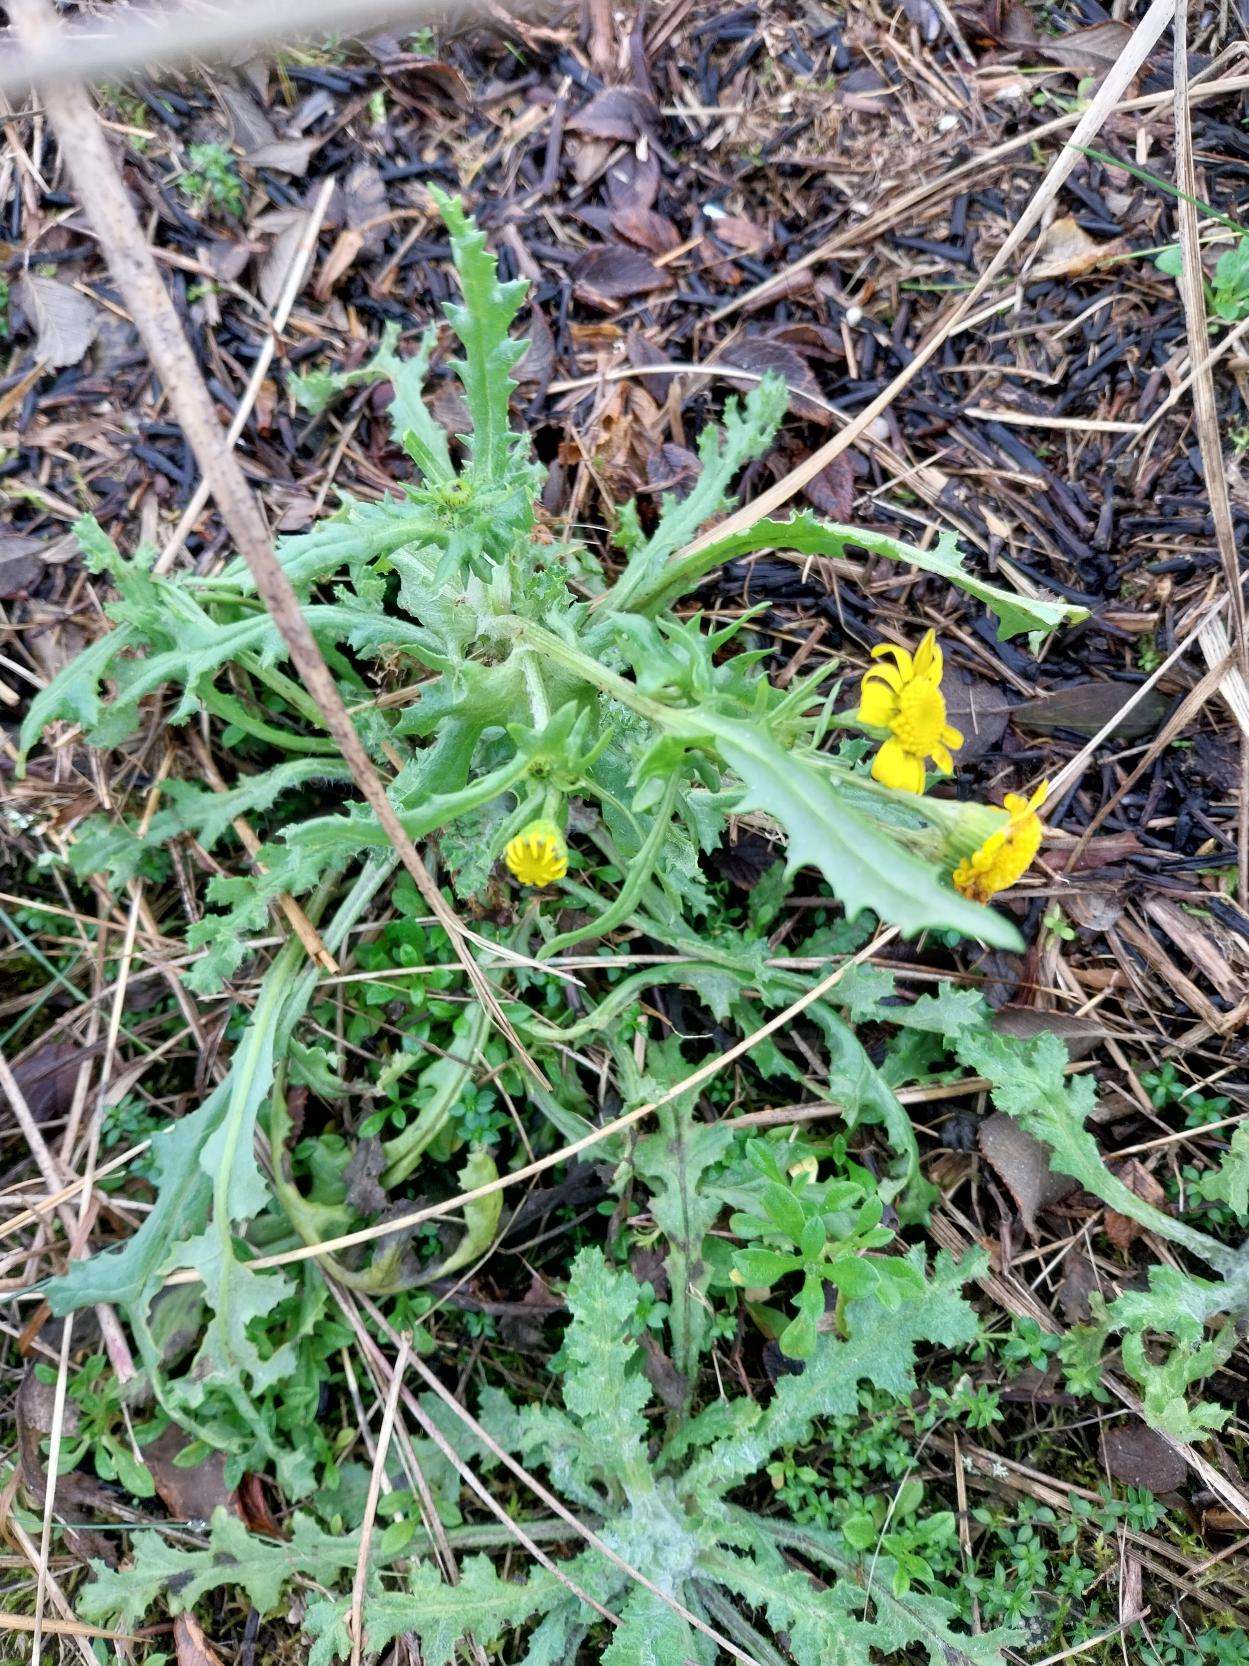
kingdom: Plantae
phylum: Tracheophyta
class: Magnoliopsida
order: Asterales
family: Asteraceae
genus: Senecio
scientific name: Senecio leucanthemifolius
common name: Vår-brandbæger
